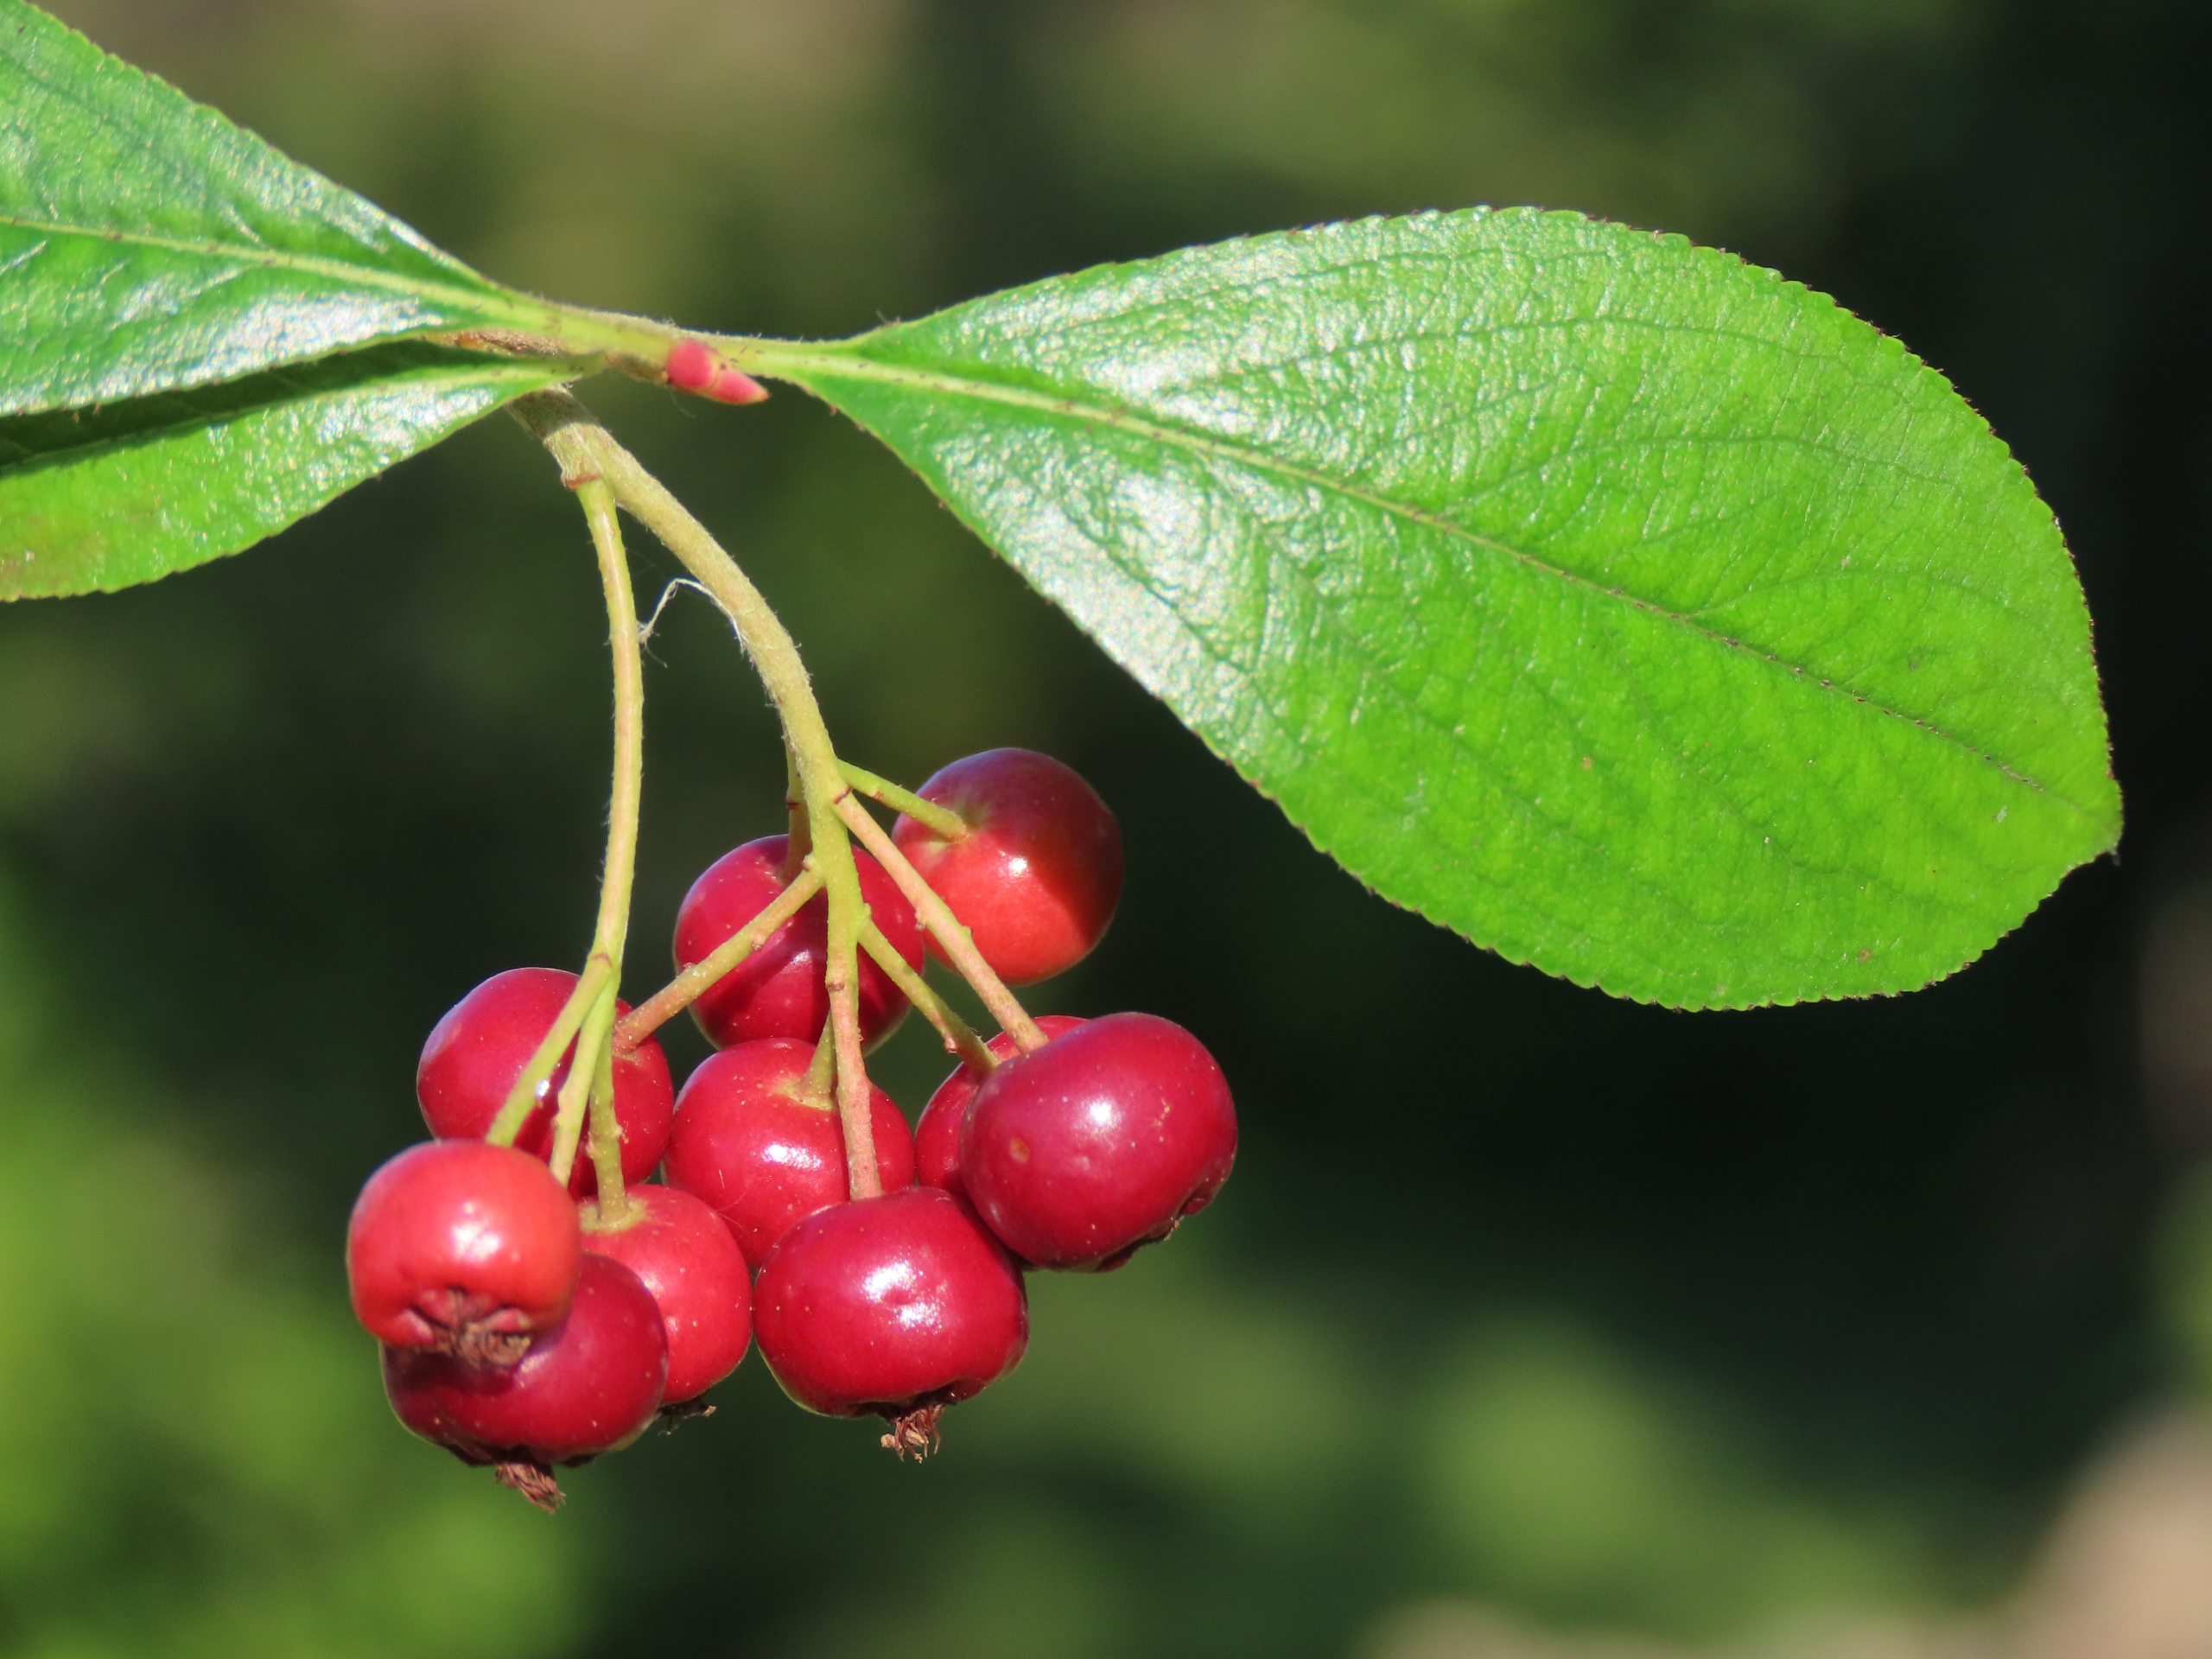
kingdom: Plantae
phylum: Tracheophyta
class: Magnoliopsida
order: Rosales
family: Rosaceae
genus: Aronia
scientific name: Aronia arbutifolia
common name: Rødfrugtet surbær
